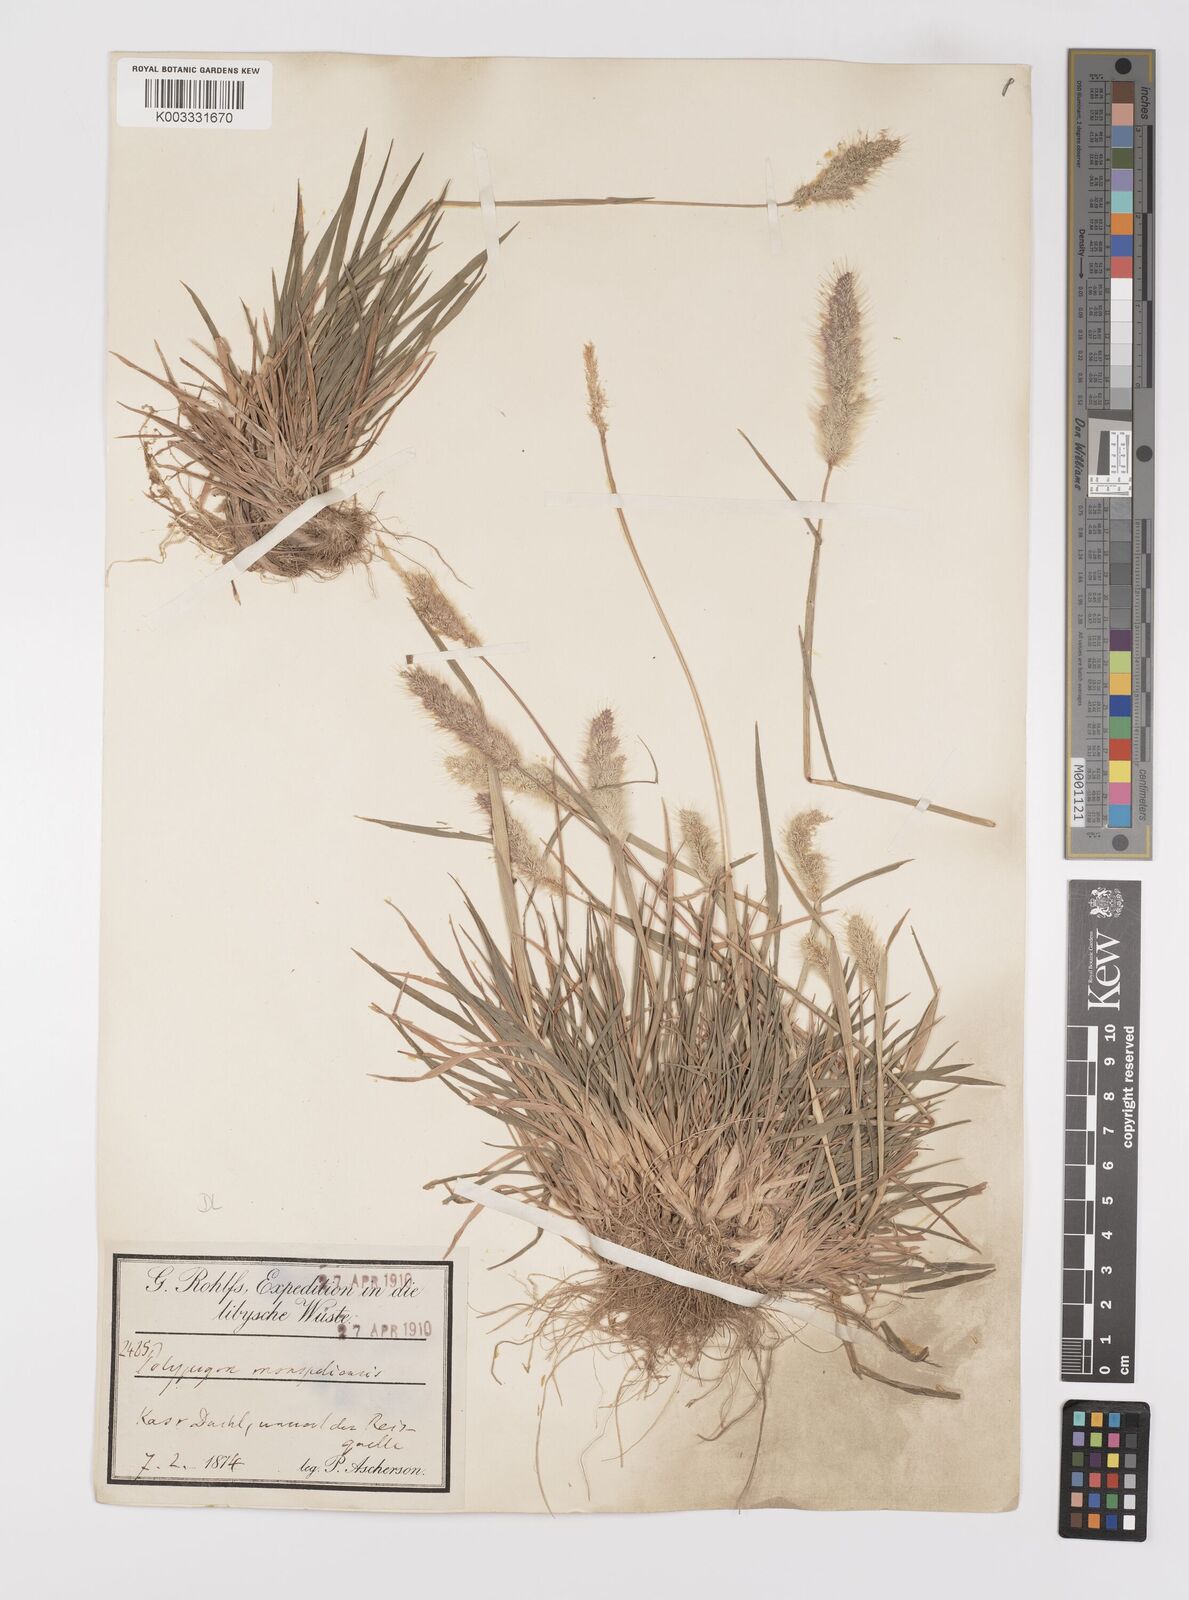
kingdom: Plantae
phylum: Tracheophyta
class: Liliopsida
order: Poales
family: Poaceae
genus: Polypogon
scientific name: Polypogon monspeliensis
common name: Annual rabbitsfoot grass
